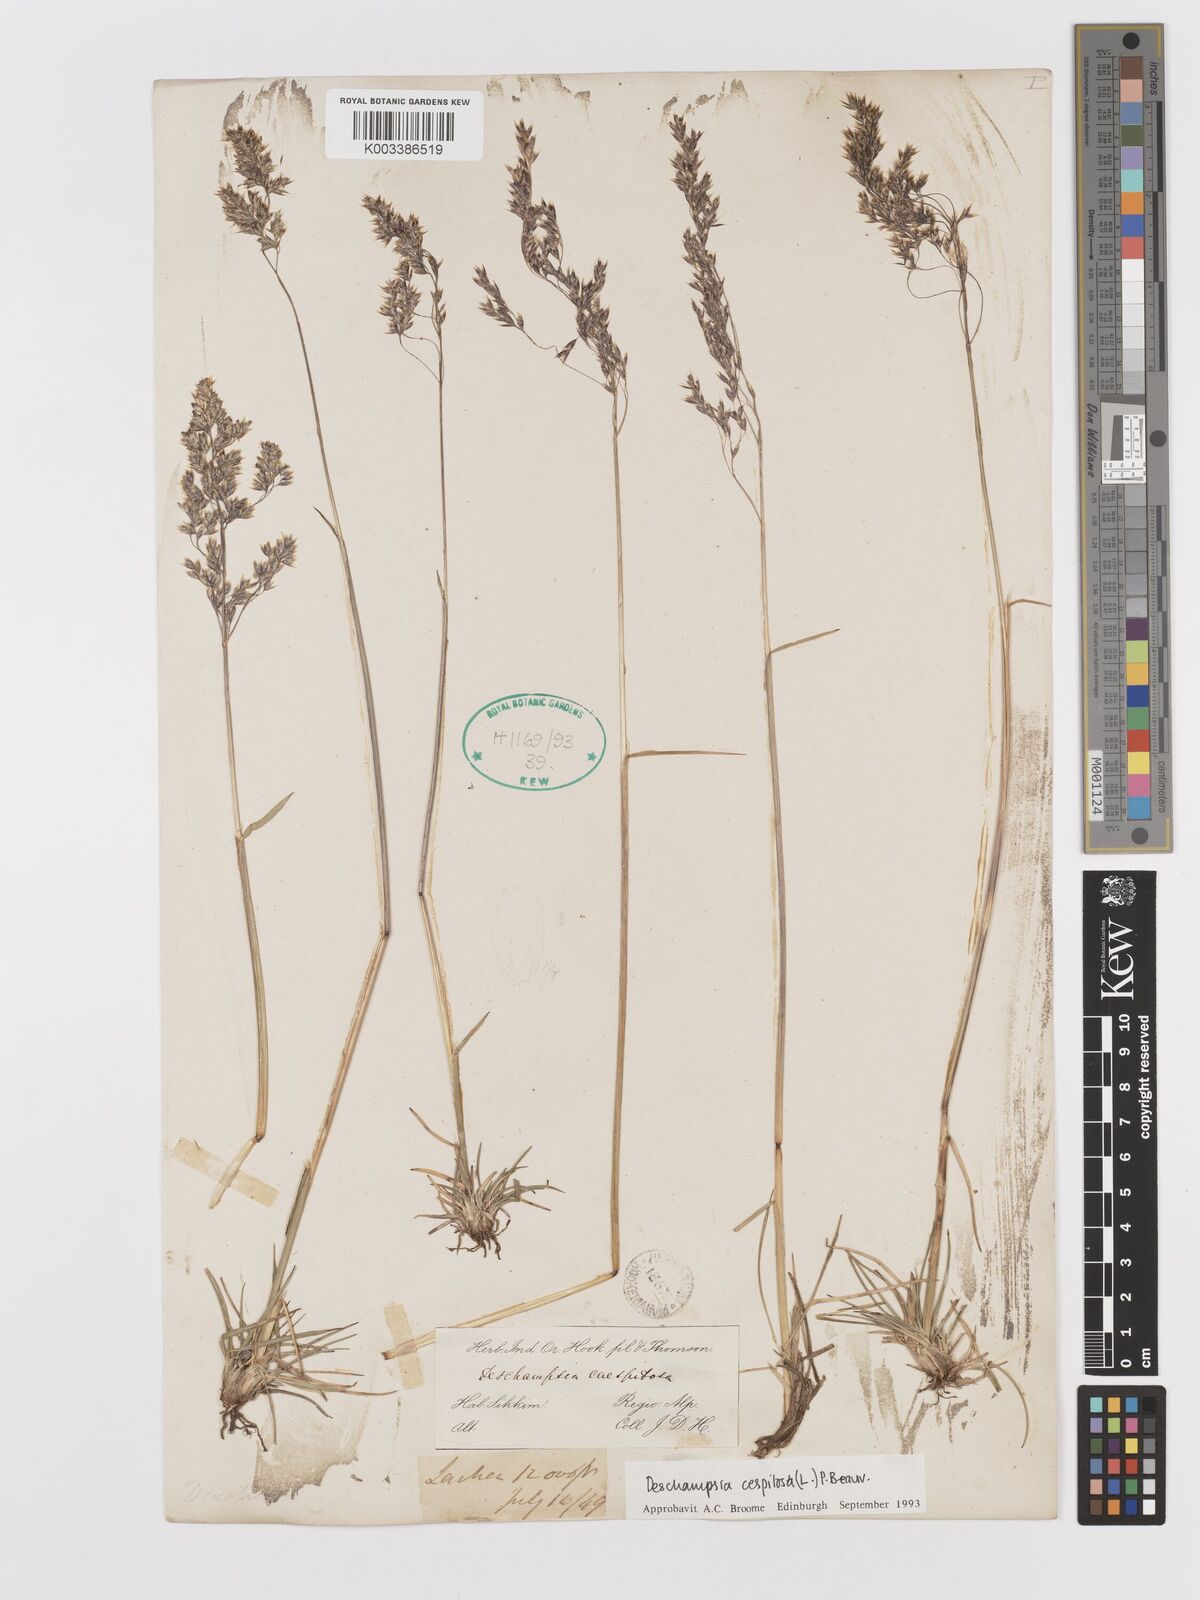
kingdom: Plantae
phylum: Tracheophyta
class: Liliopsida
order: Poales
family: Poaceae
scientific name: Poaceae
